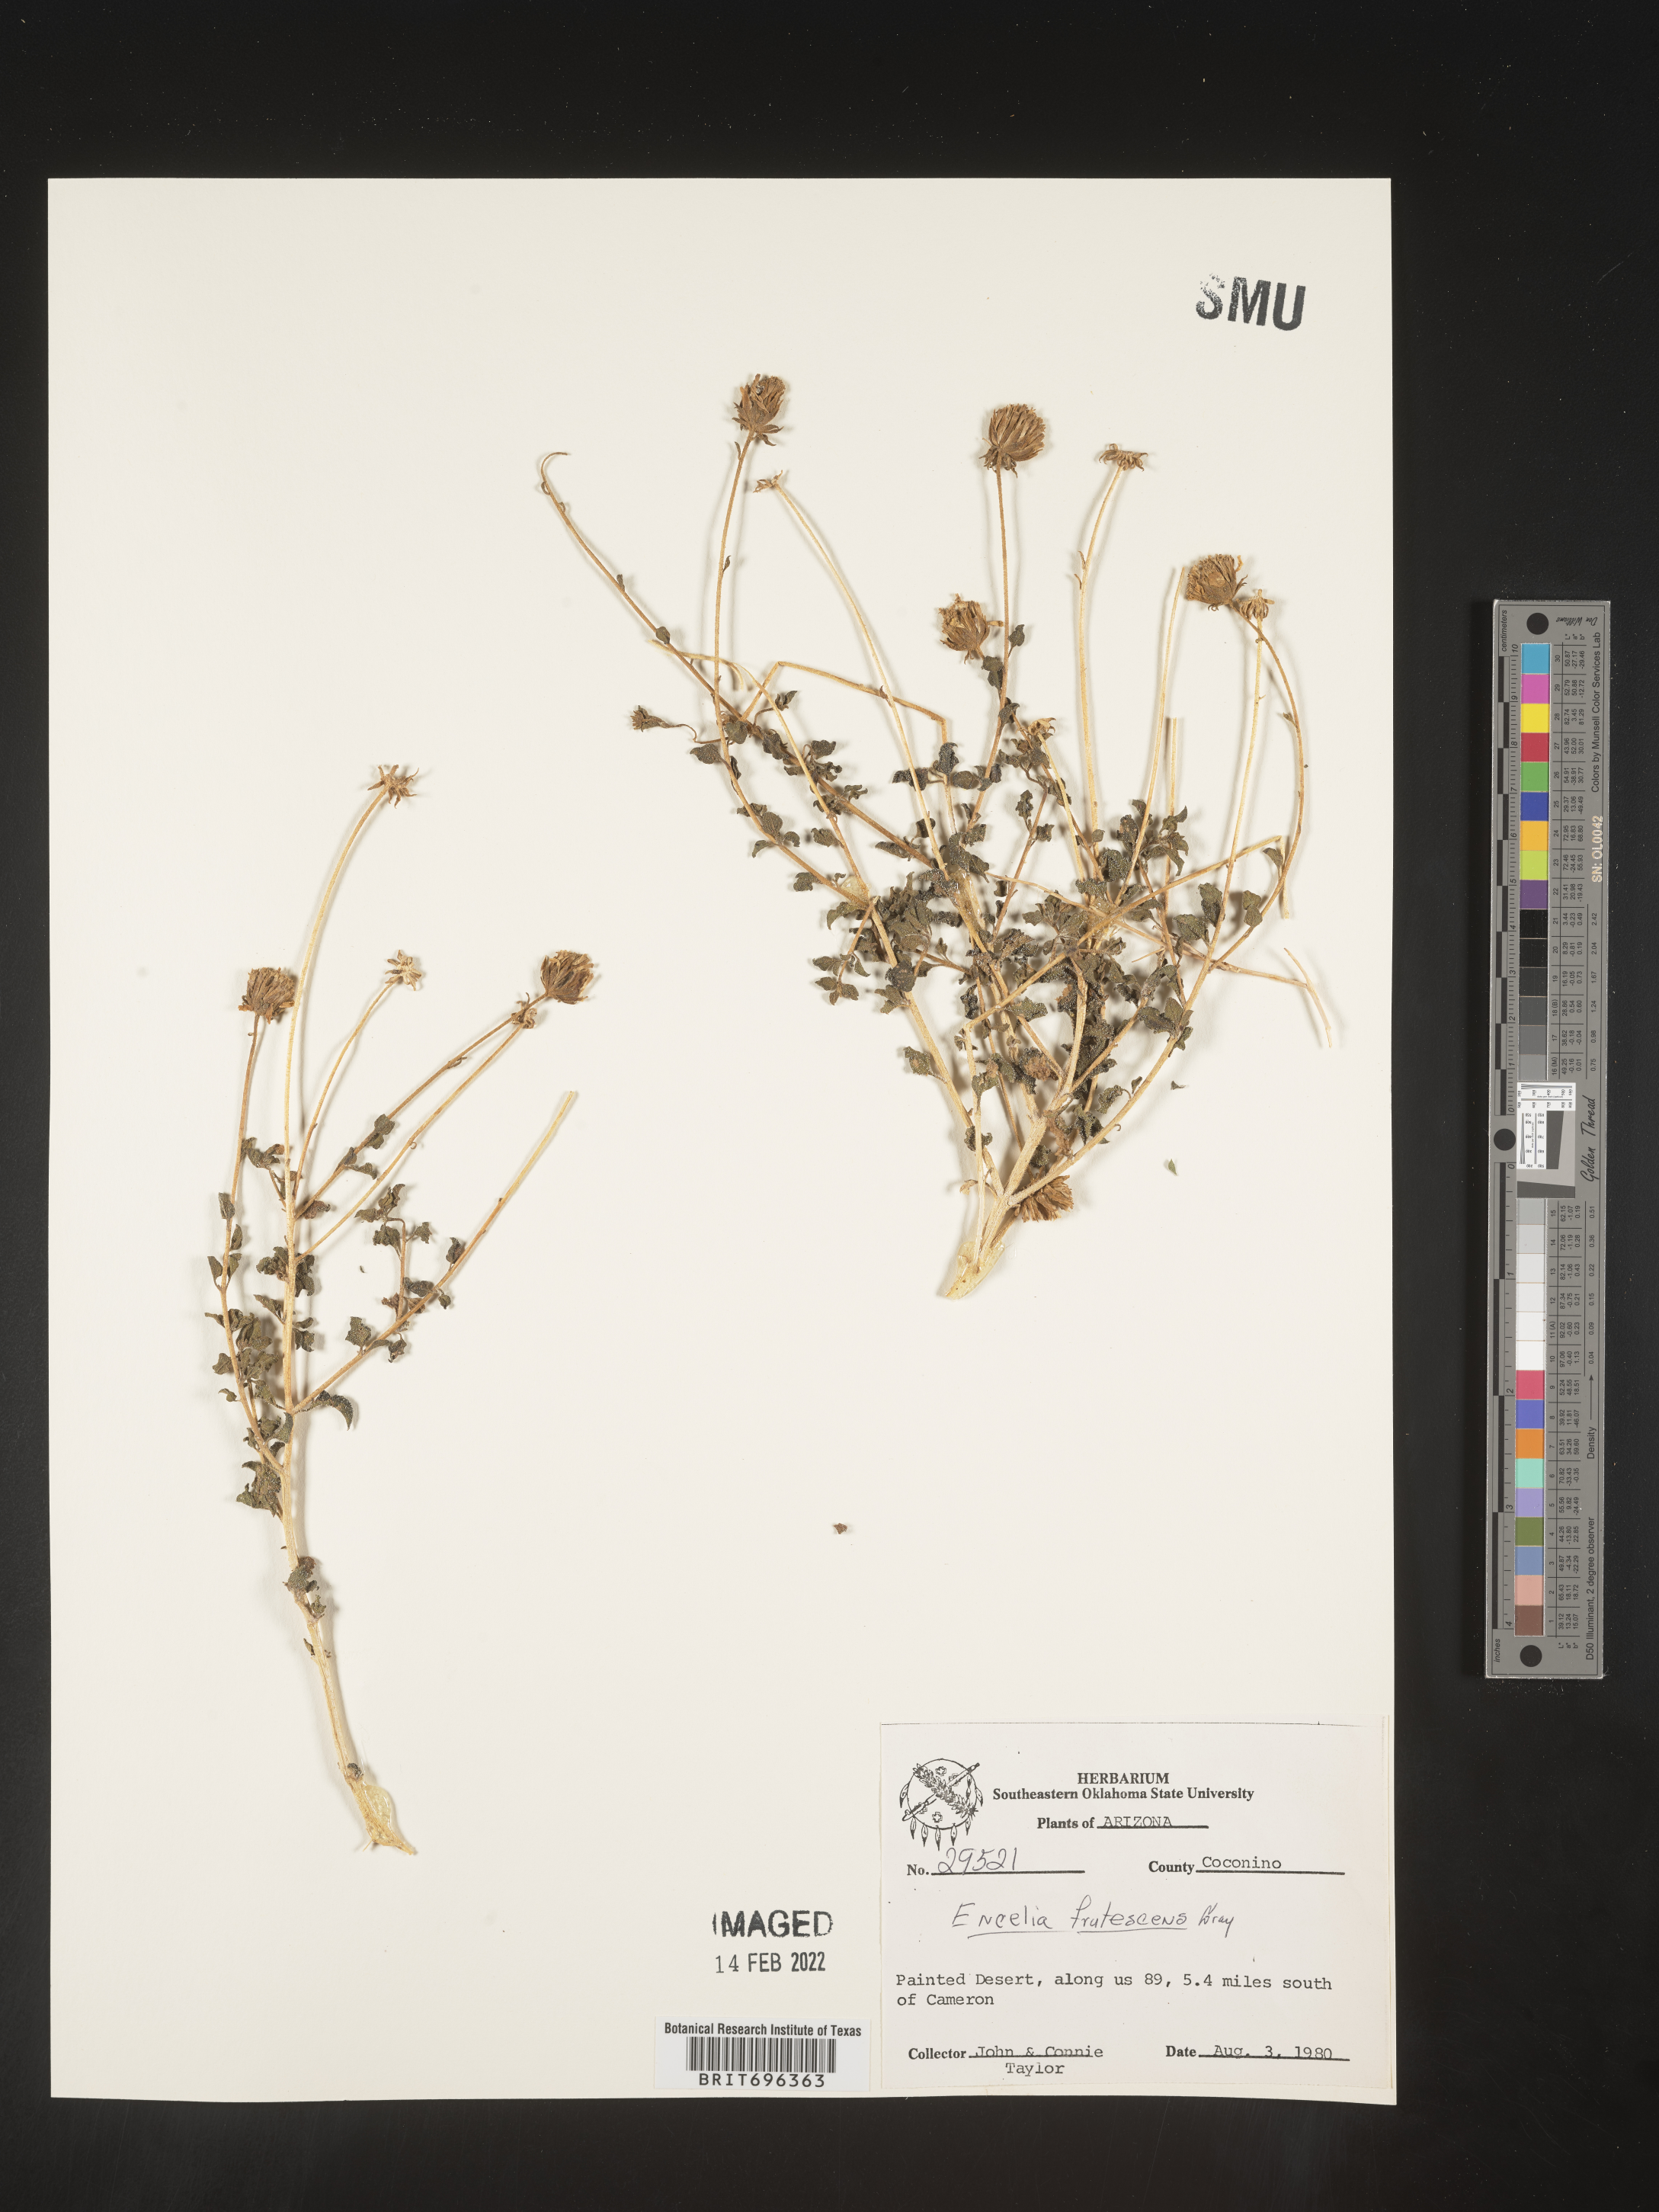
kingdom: Plantae
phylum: Tracheophyta
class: Magnoliopsida
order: Asterales
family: Asteraceae
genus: Encelia
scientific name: Encelia frutescens
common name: Bush encelia
